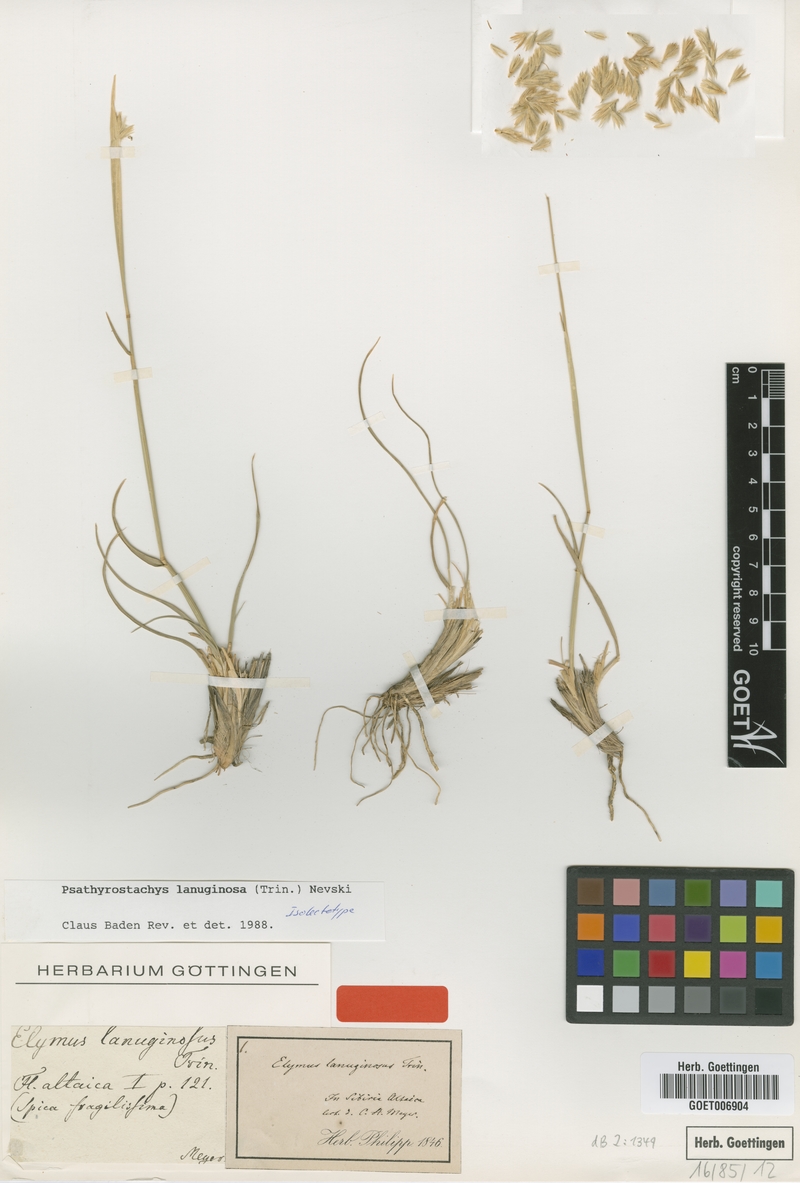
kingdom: Plantae
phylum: Tracheophyta
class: Liliopsida
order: Poales
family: Poaceae
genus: Psathyrostachys
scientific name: Psathyrostachys lanuginosa
